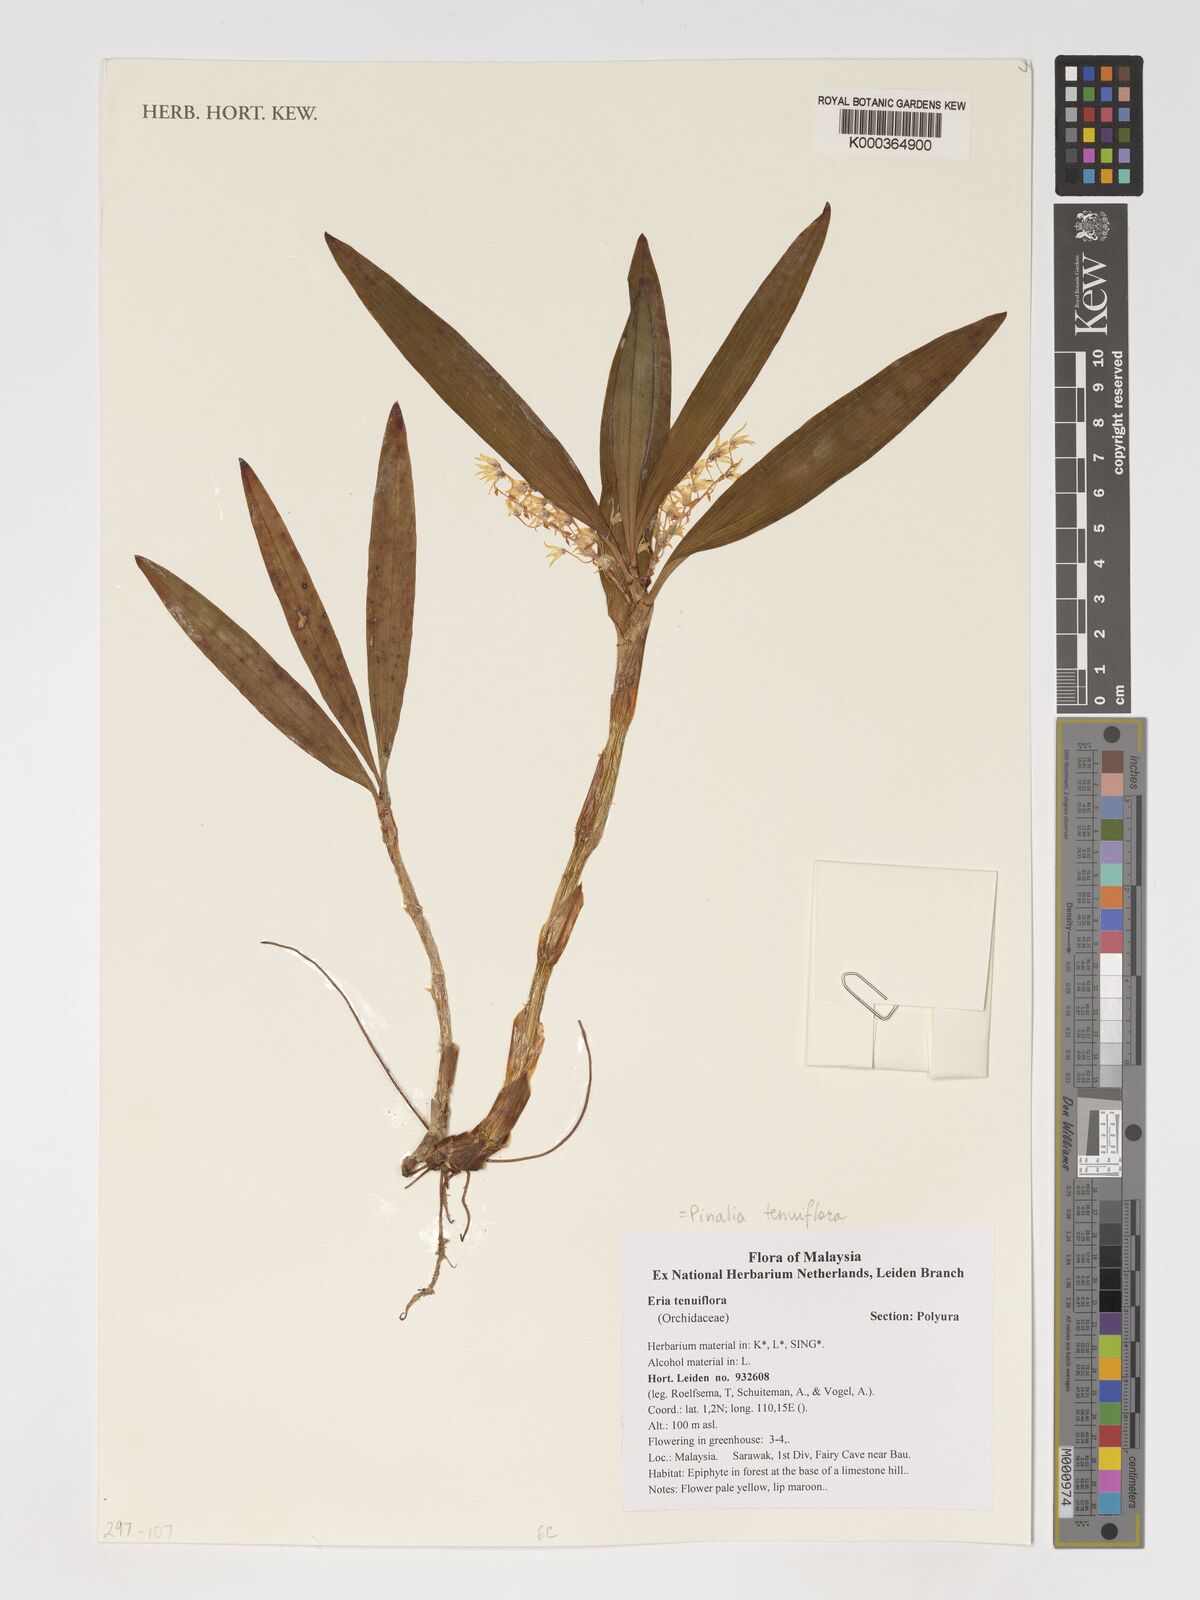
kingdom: Plantae
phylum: Tracheophyta
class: Liliopsida
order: Asparagales
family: Orchidaceae
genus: Pinalia
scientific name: Pinalia tenuiflora
